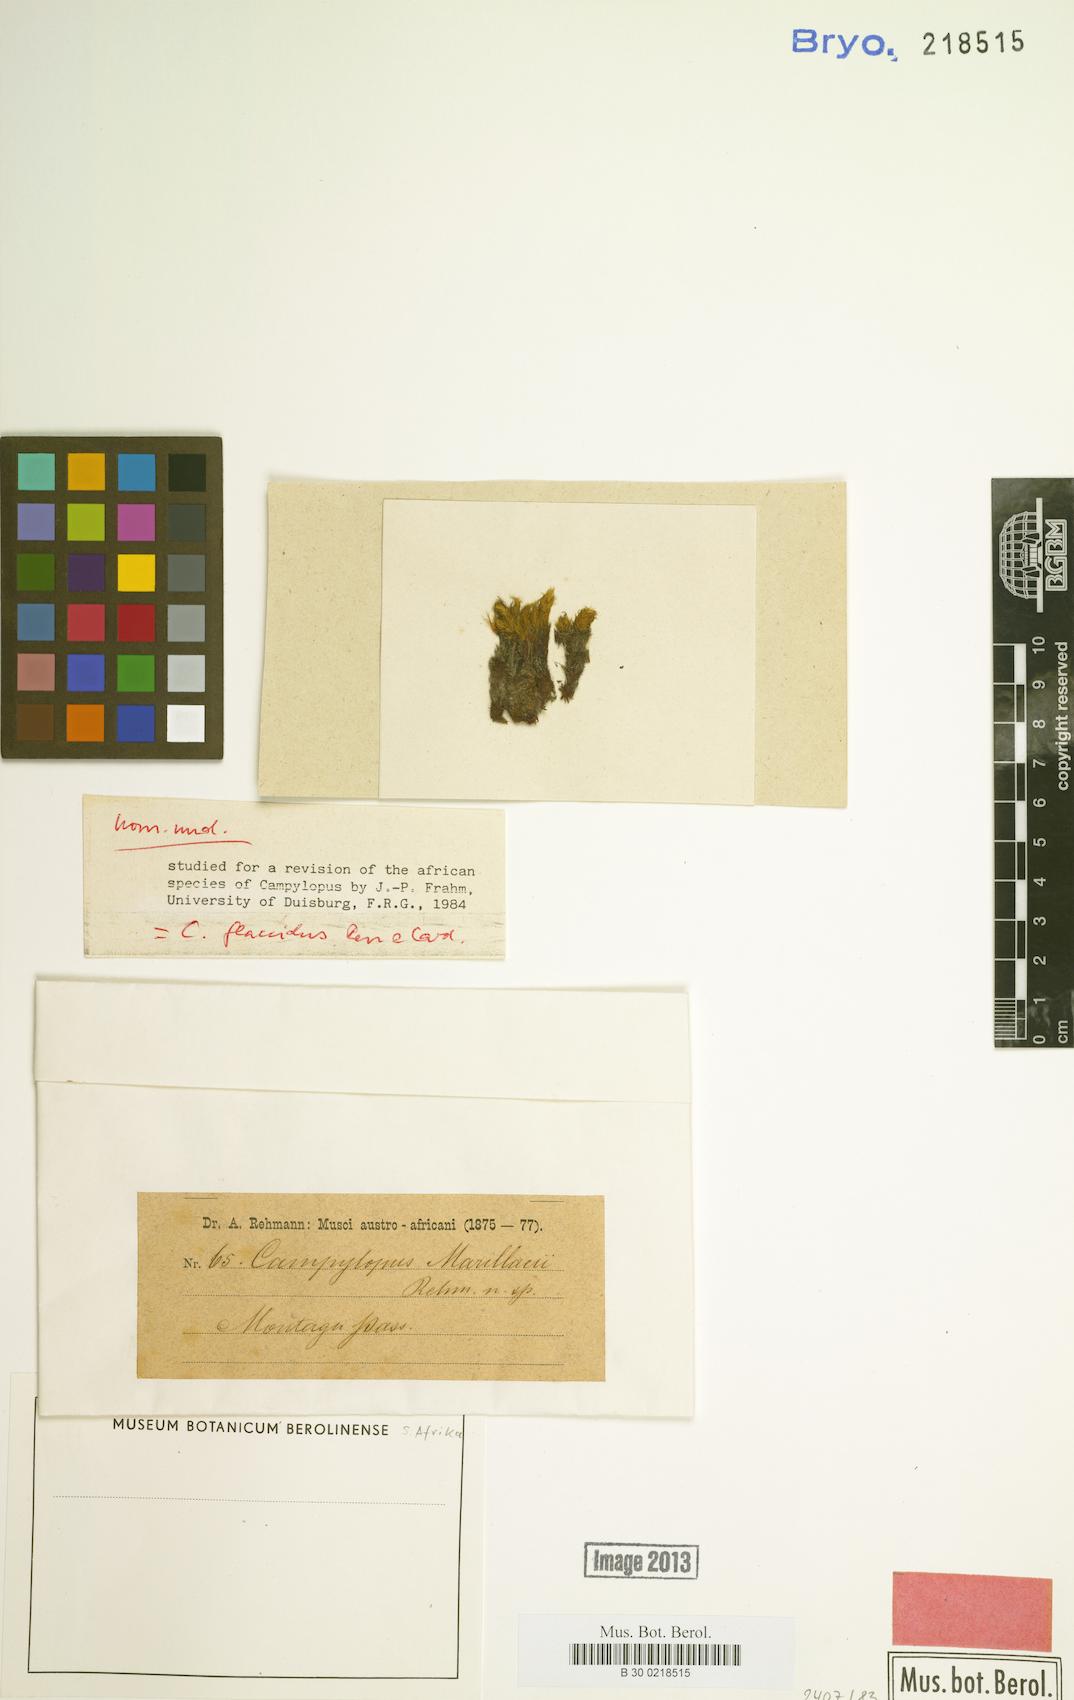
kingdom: Plantae
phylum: Bryophyta
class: Bryopsida
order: Dicranales
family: Leucobryaceae
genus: Campylopus
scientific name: Campylopus flaccidus
